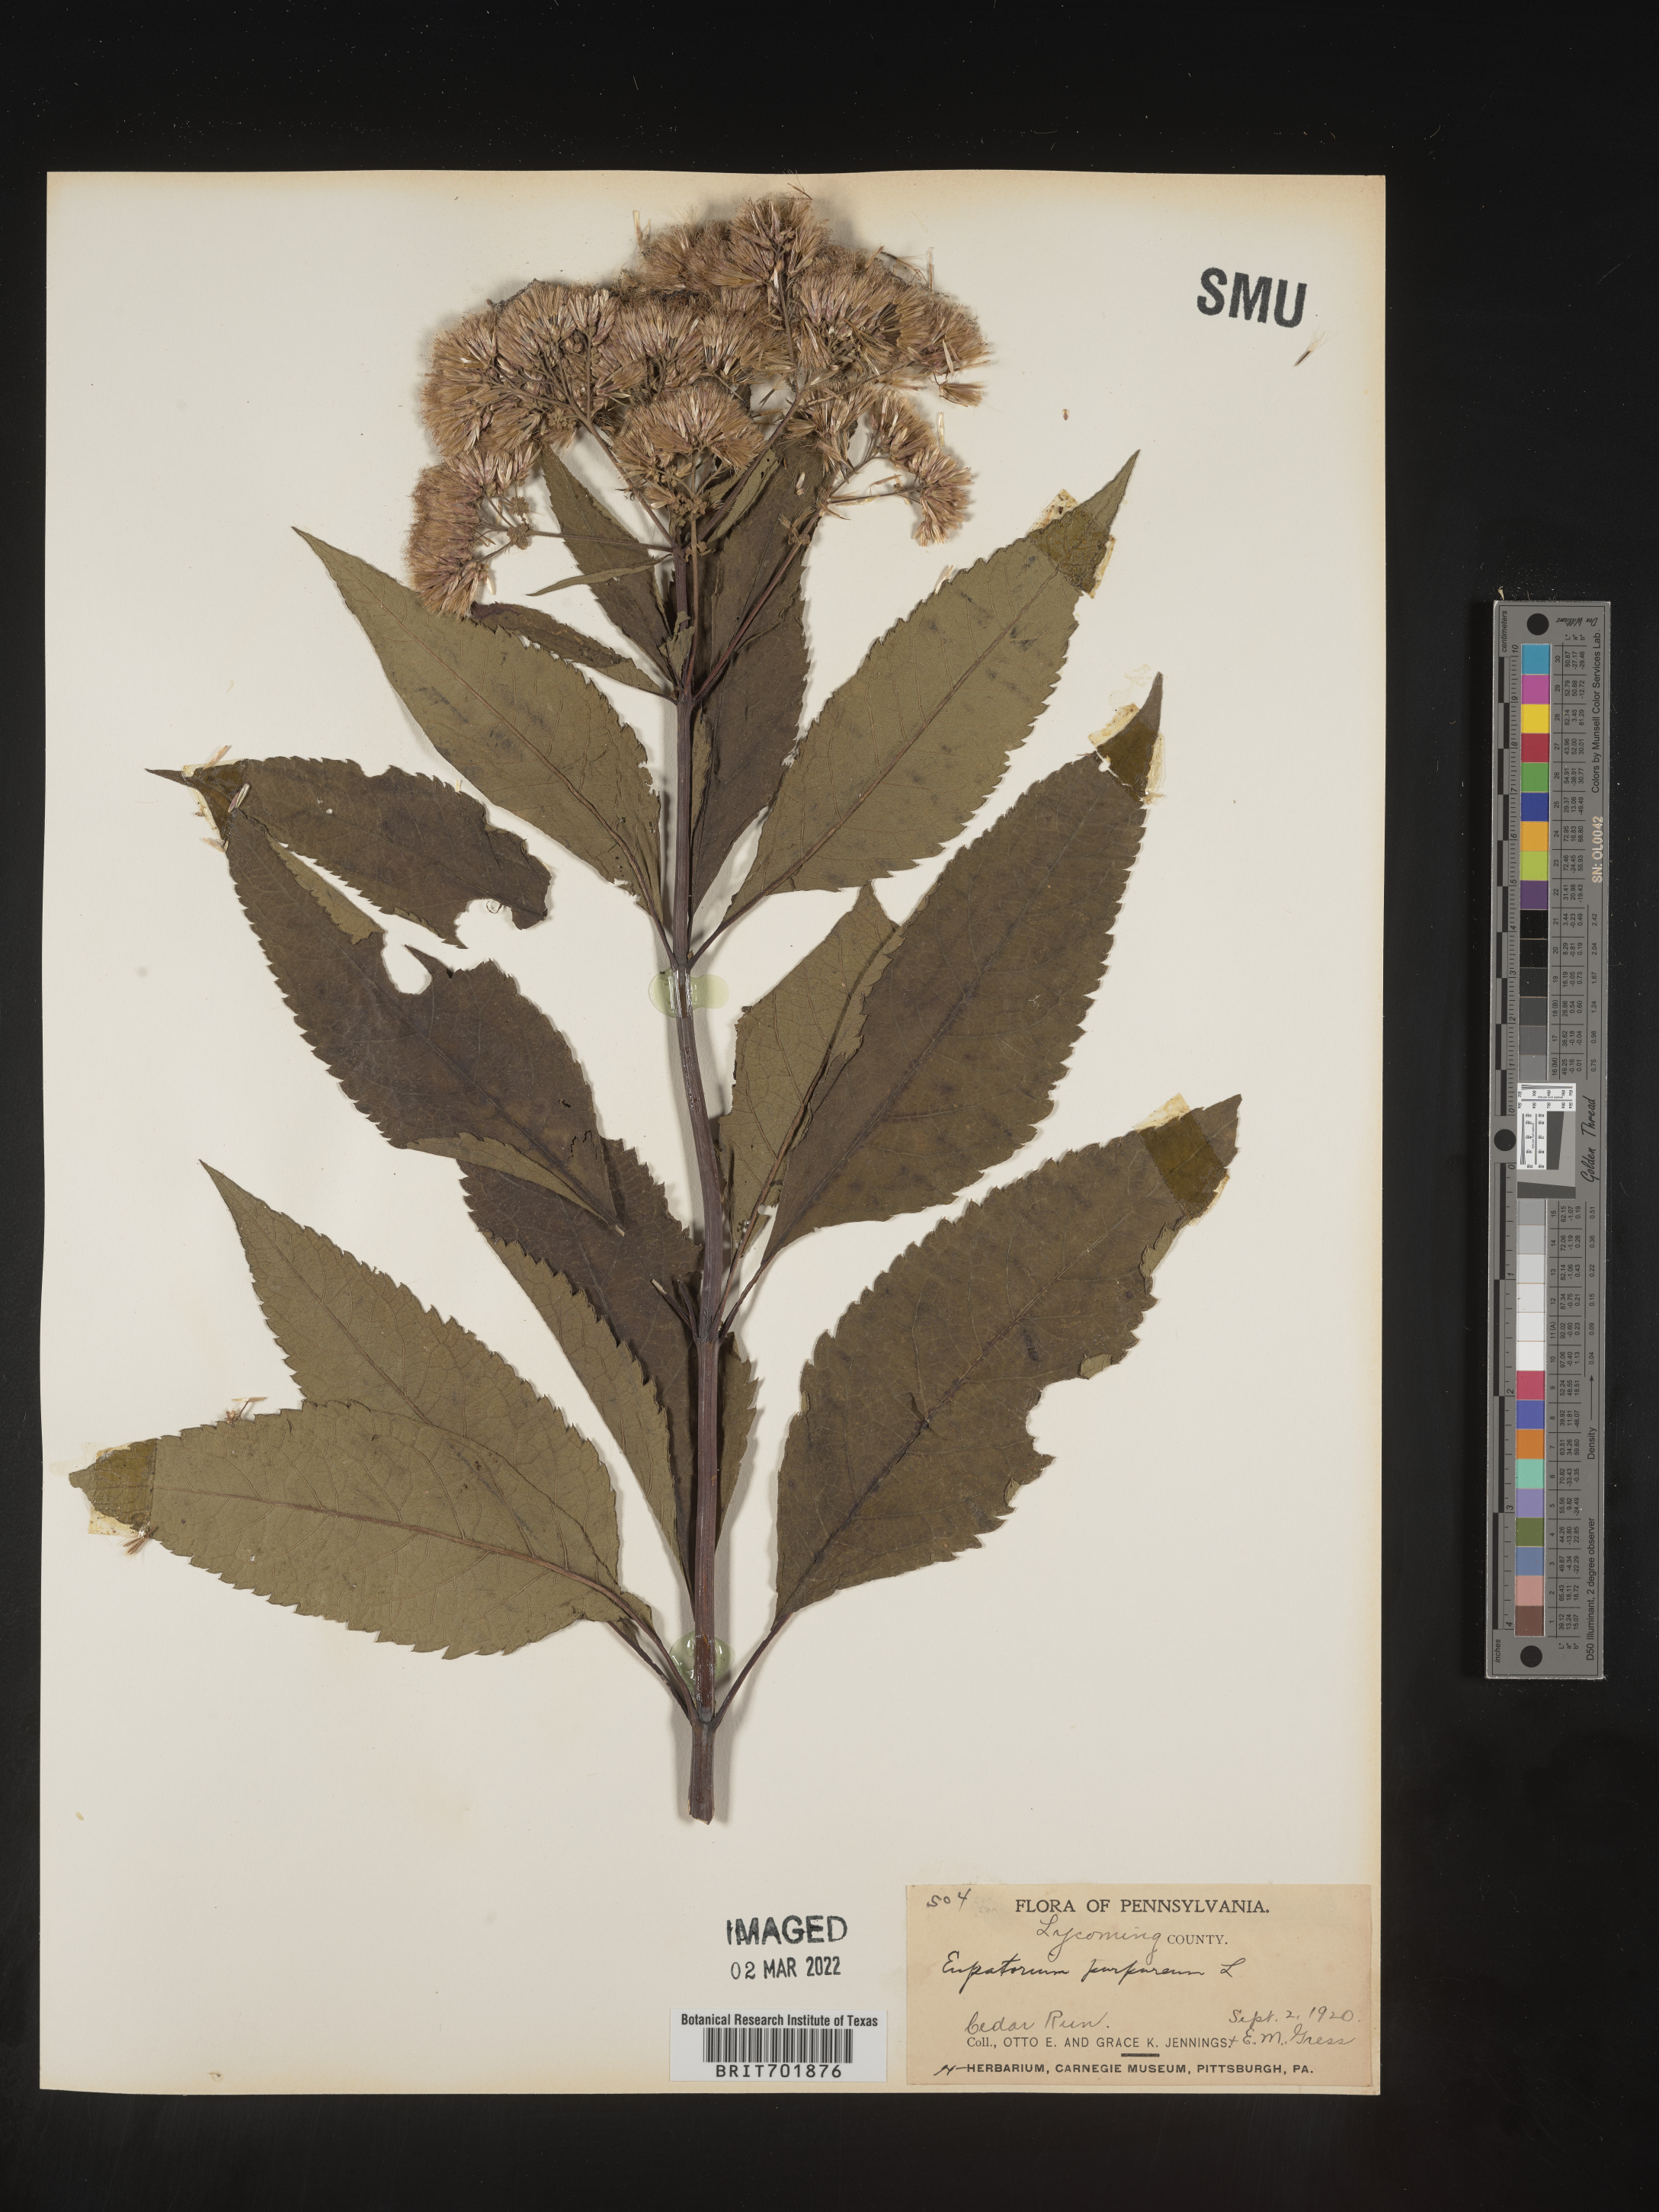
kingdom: Plantae
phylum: Tracheophyta
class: Magnoliopsida
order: Asterales
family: Asteraceae
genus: Eupatorium
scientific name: Eupatorium quaternum
